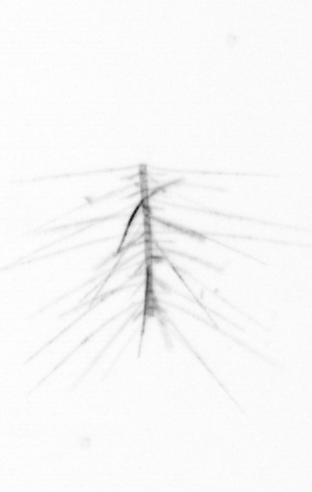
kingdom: Chromista
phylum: Ochrophyta
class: Bacillariophyceae
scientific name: Bacillariophyceae
